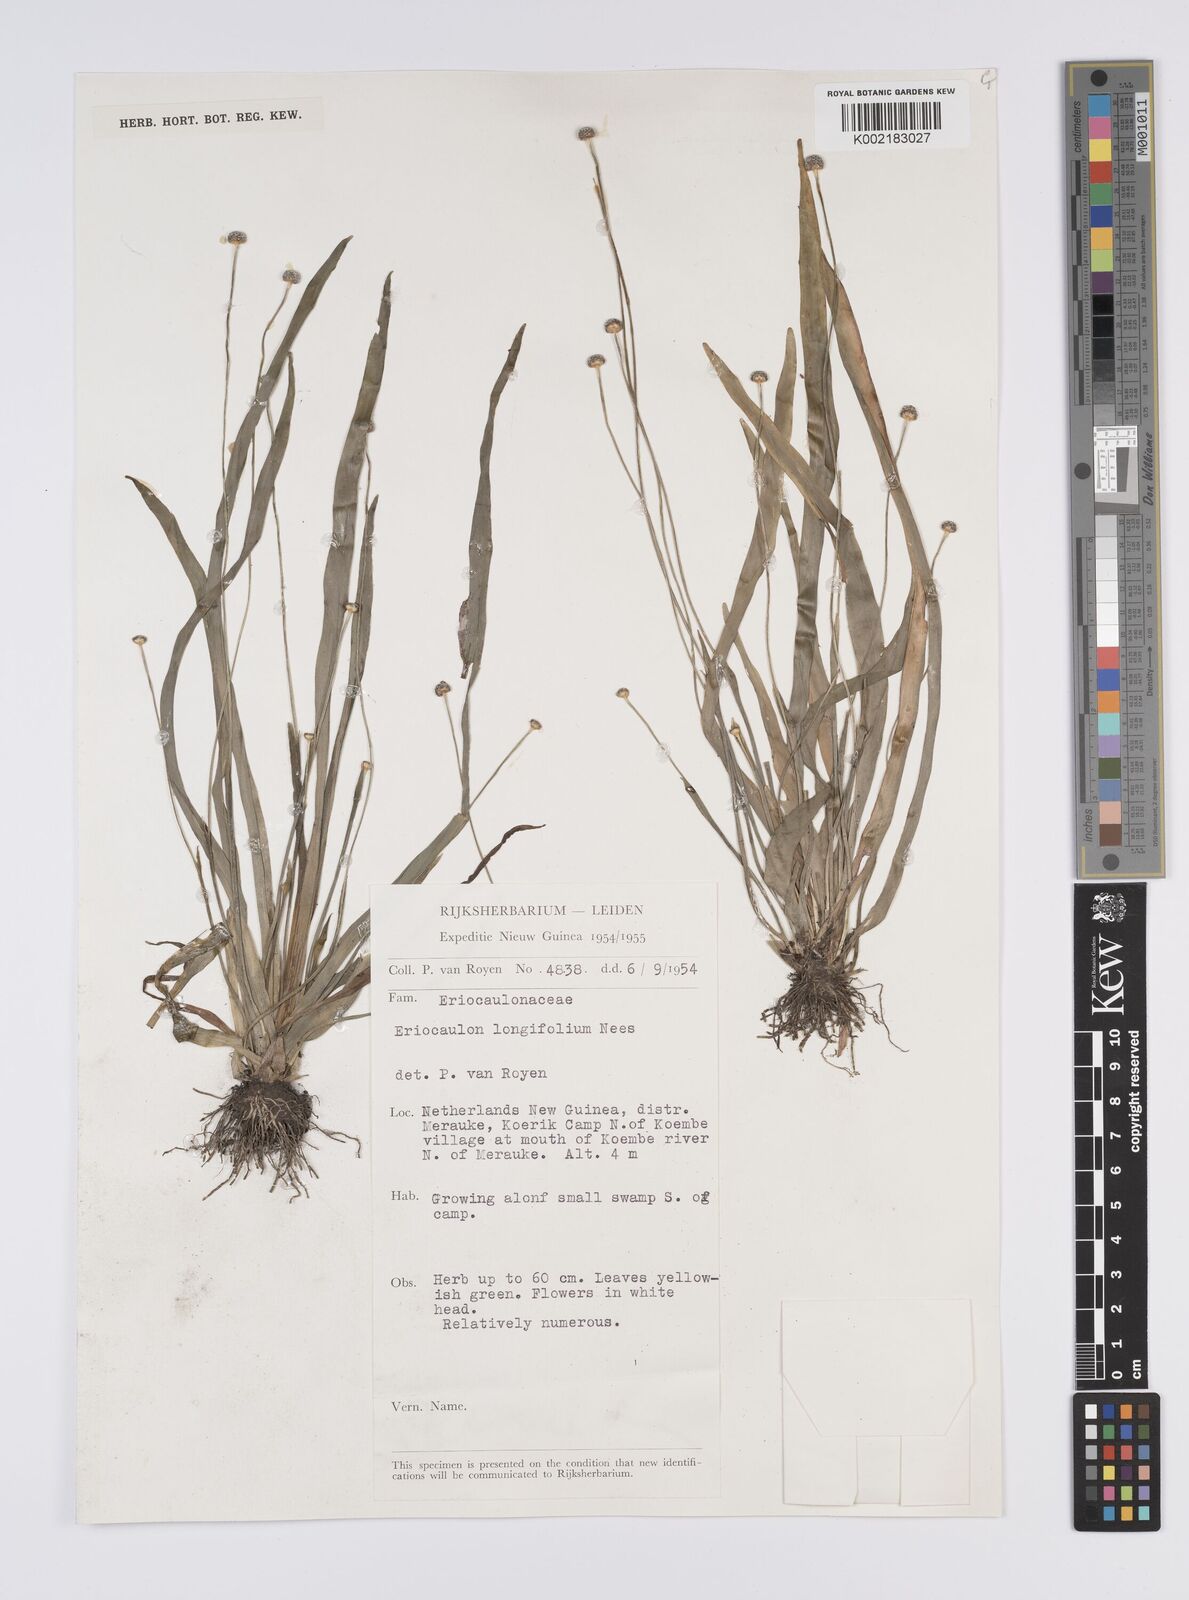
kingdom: Plantae
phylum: Tracheophyta
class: Liliopsida
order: Poales
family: Eriocaulaceae
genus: Eriocaulon
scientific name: Eriocaulon willdenovianum
